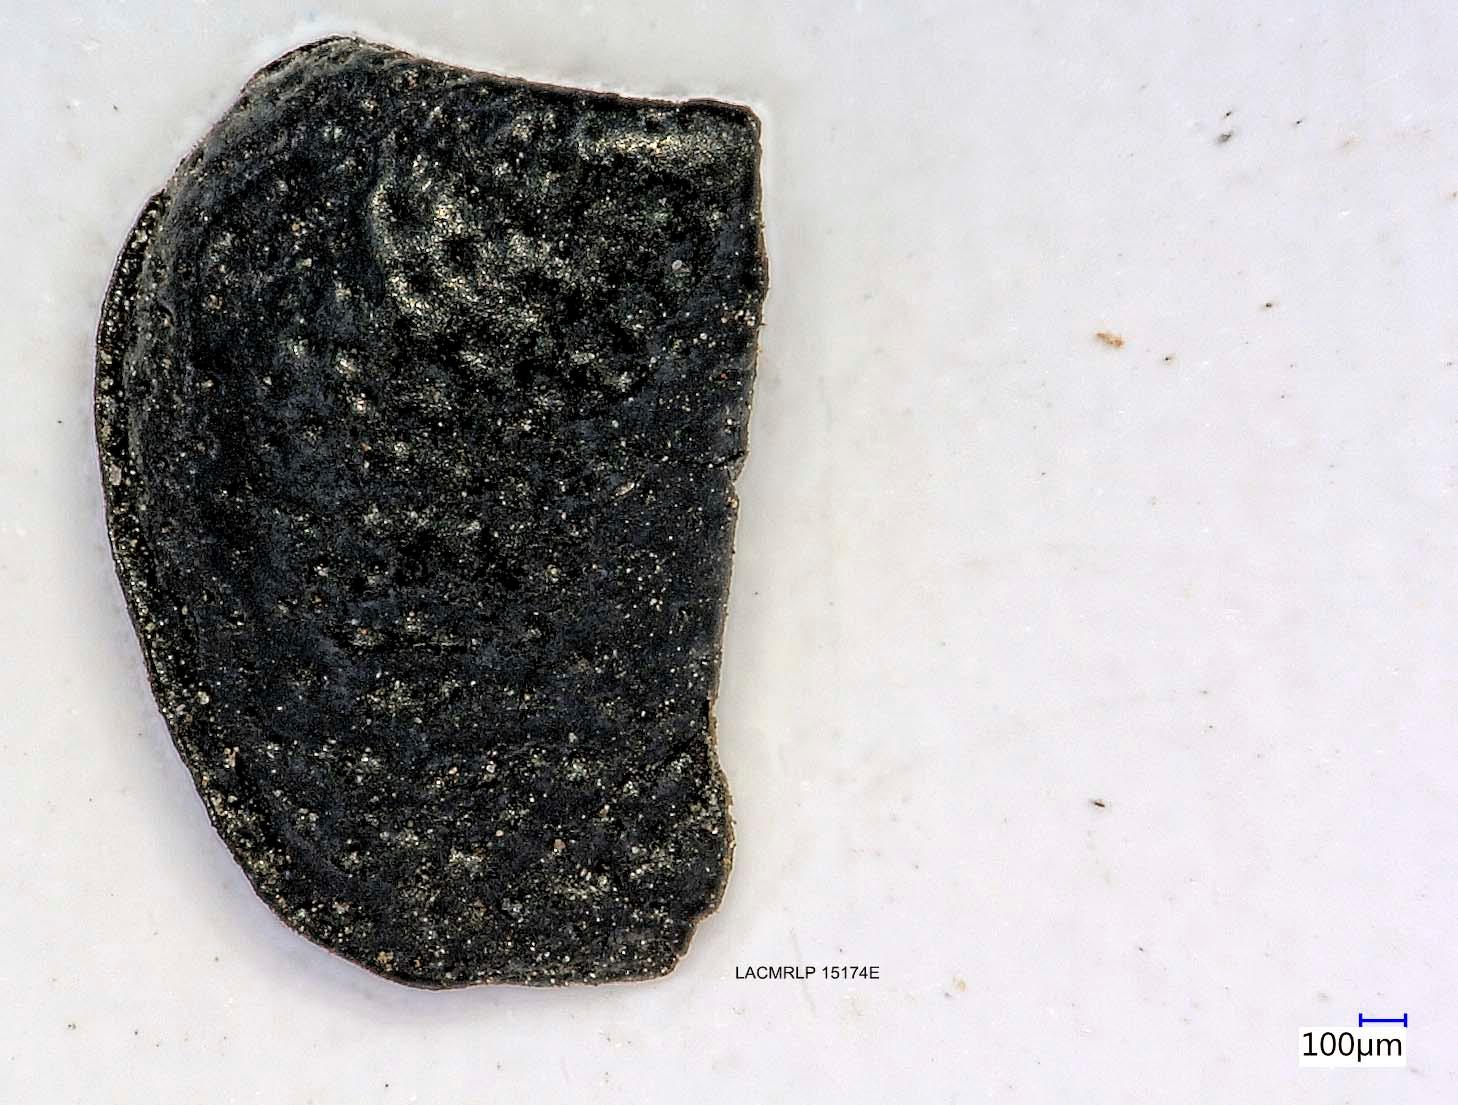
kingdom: Animalia
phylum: Arthropoda
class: Insecta
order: Coleoptera
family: Carabidae
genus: Dicheirus
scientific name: Dicheirus dilatatus
